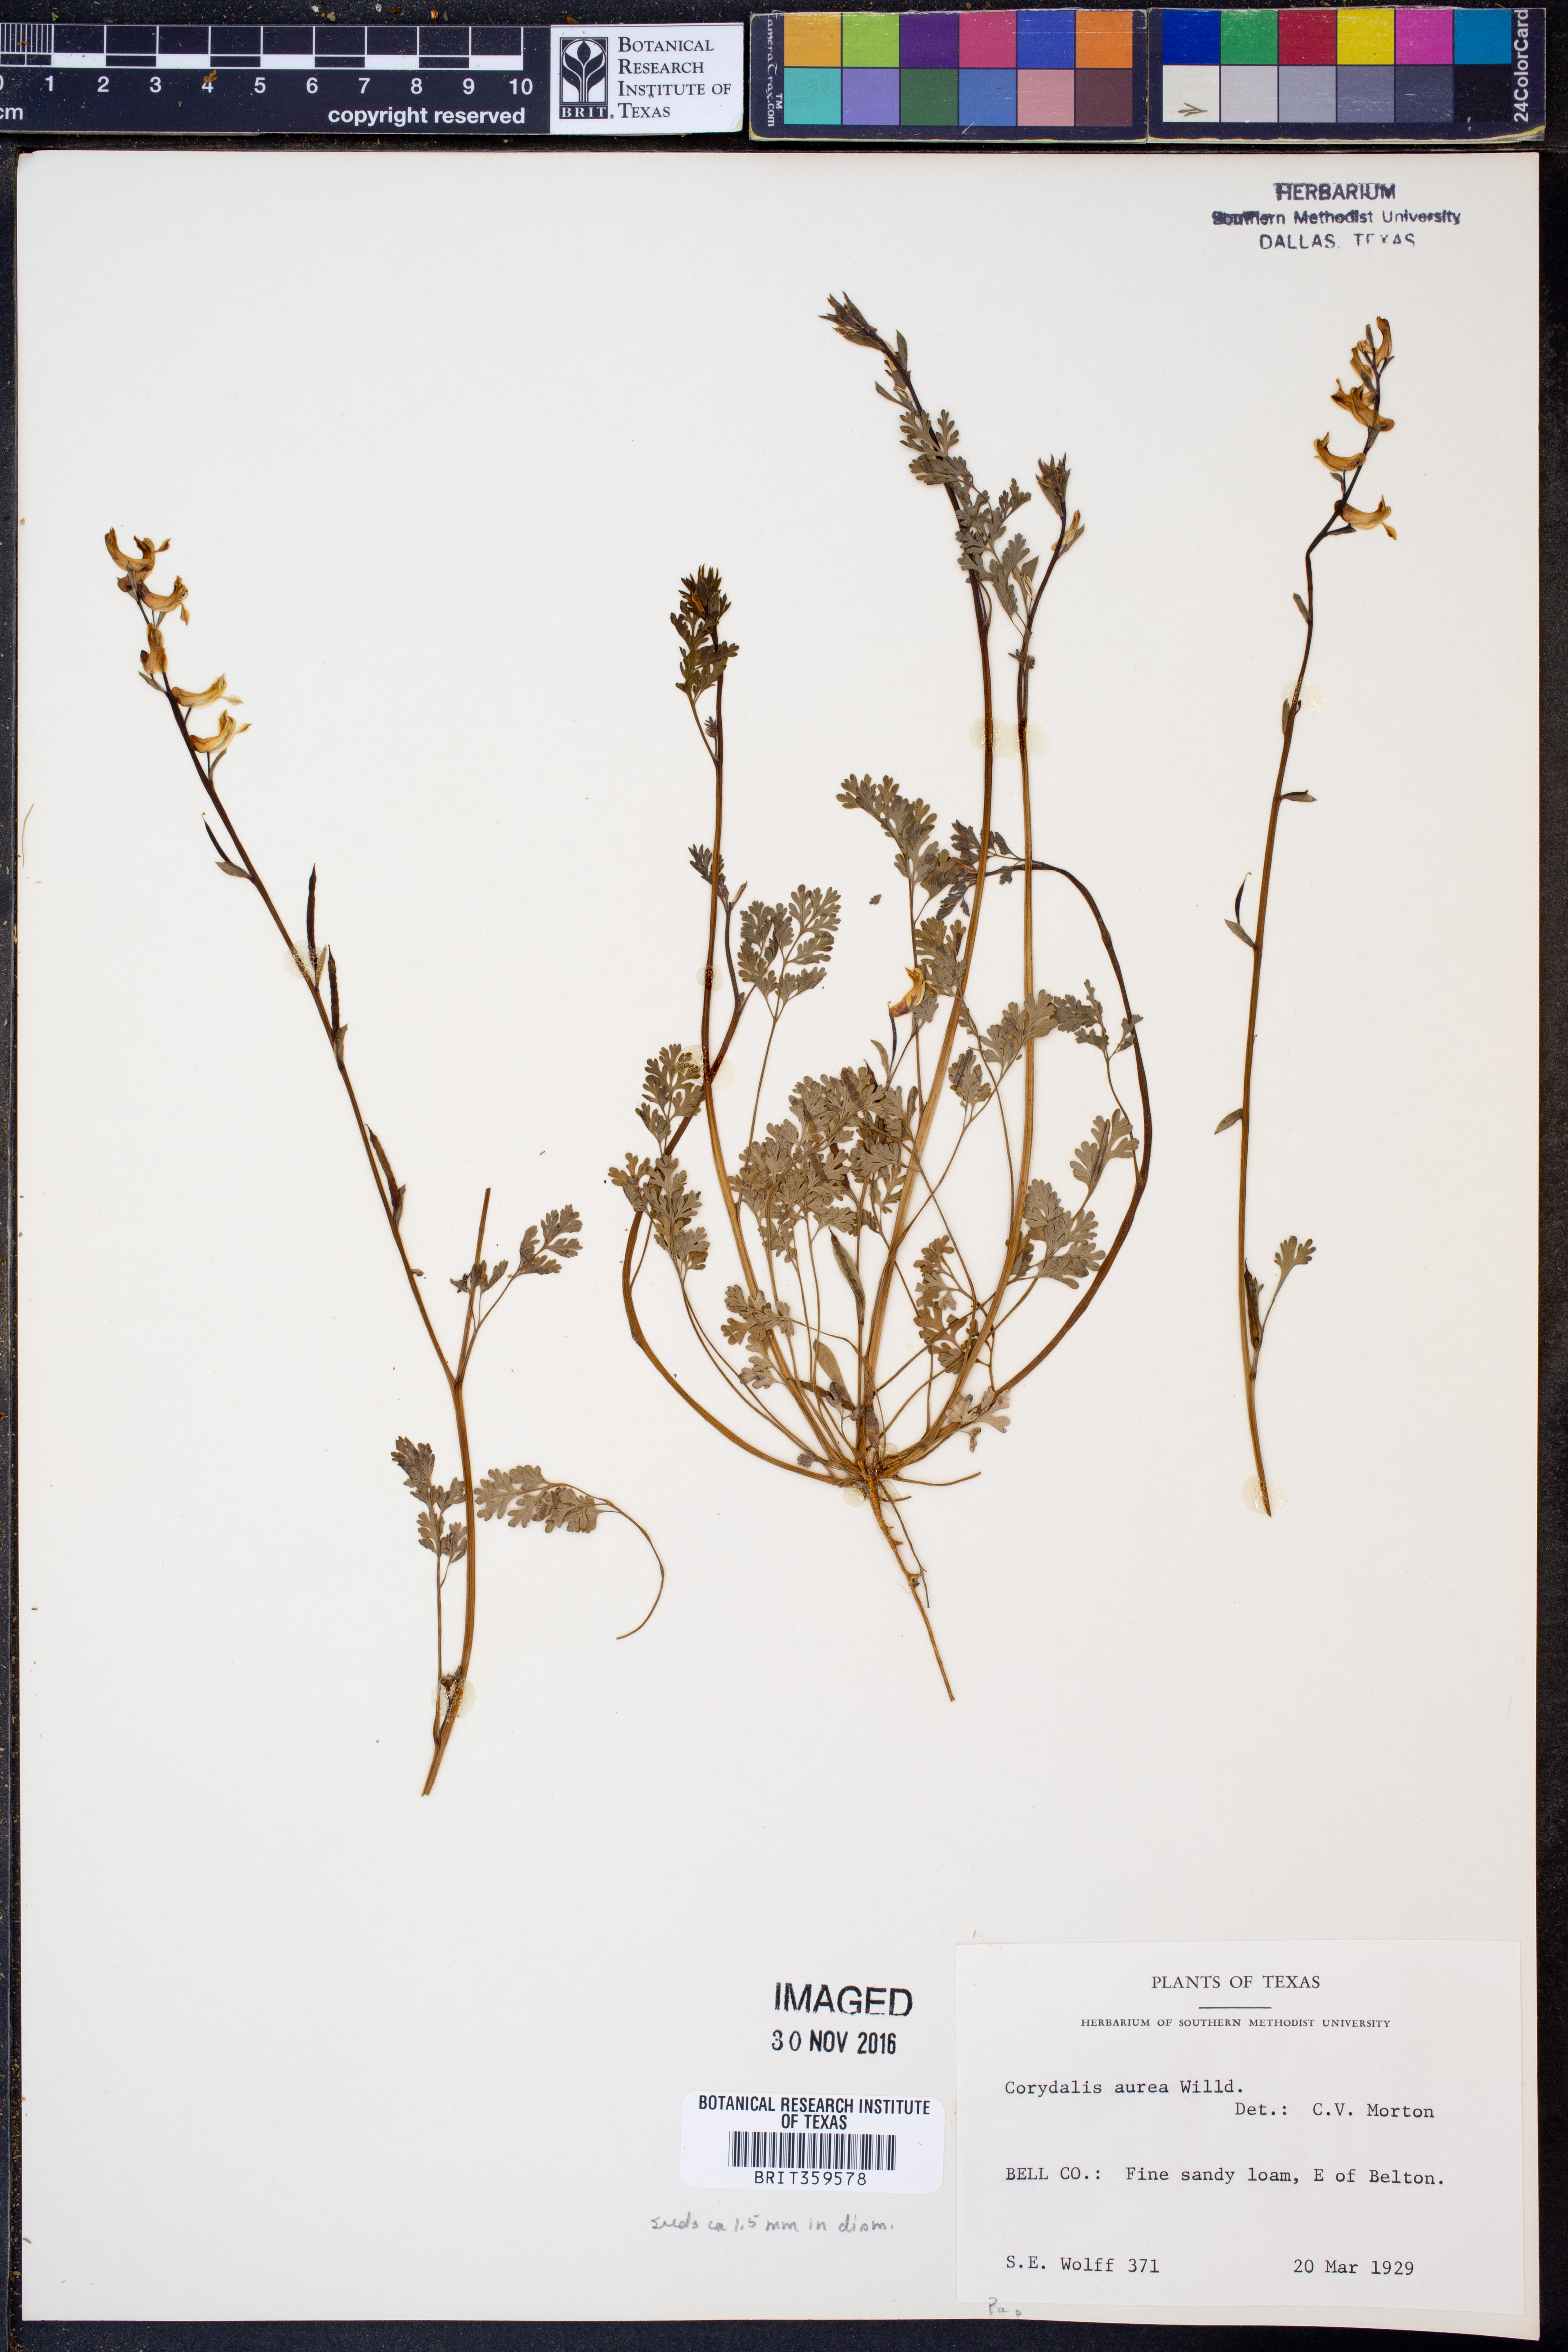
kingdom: Plantae
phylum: Tracheophyta
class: Magnoliopsida
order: Ranunculales
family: Papaveraceae
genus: Corydalis
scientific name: Corydalis aurea
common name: Golden corydalis
